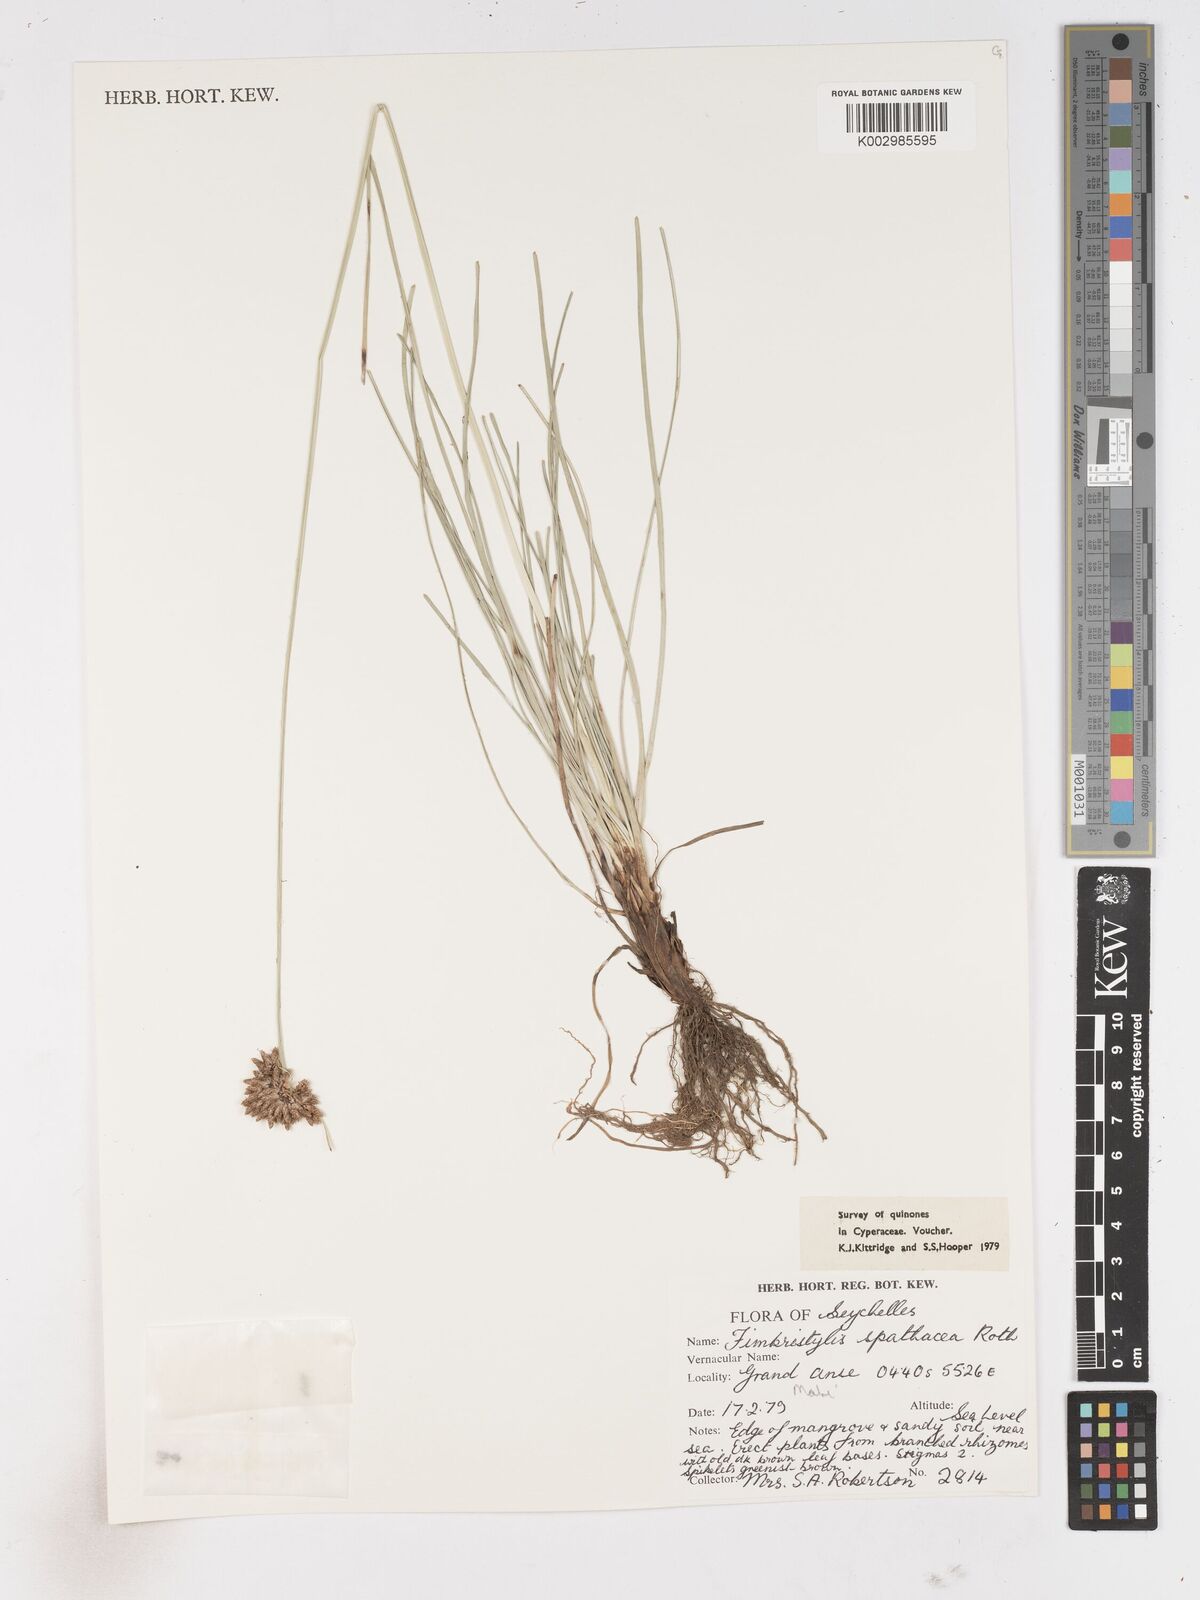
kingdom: Plantae
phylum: Tracheophyta
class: Liliopsida
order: Poales
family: Cyperaceae
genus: Fimbristylis
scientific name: Fimbristylis cymosa
